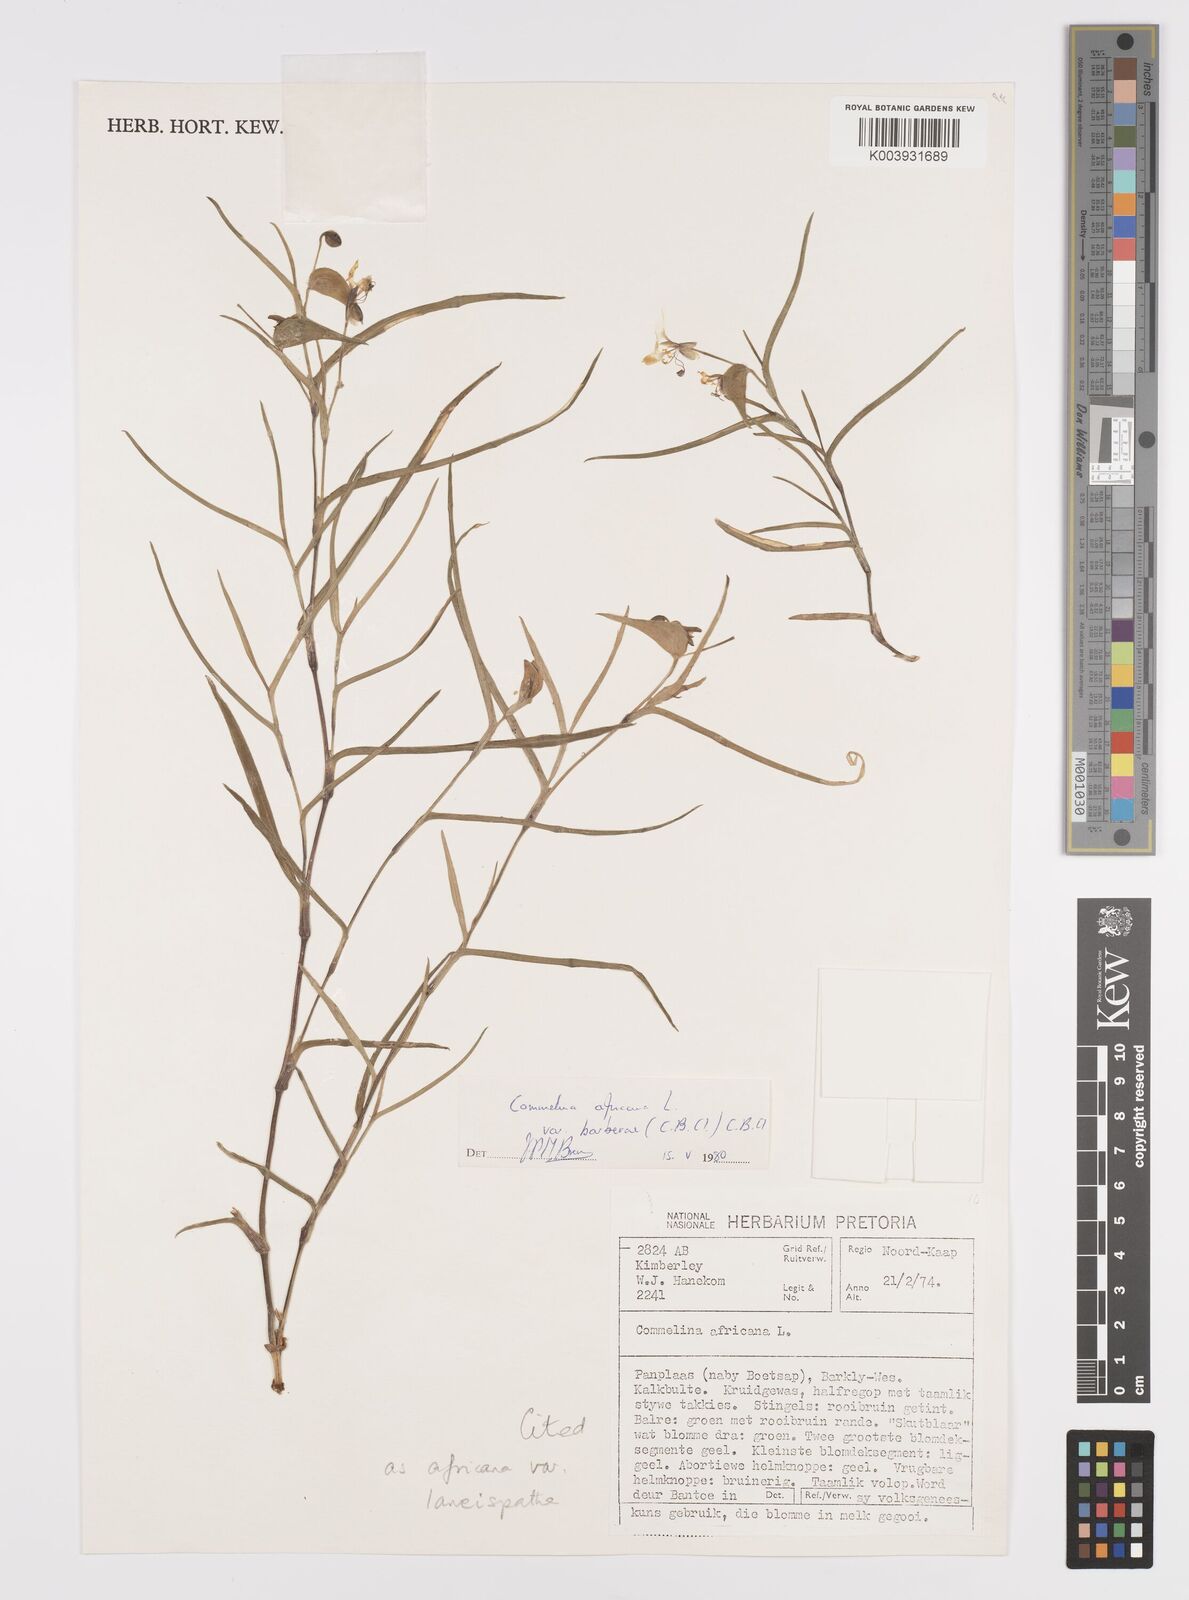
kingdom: Plantae
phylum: Tracheophyta
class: Liliopsida
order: Commelinales
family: Commelinaceae
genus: Commelina
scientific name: Commelina africana
